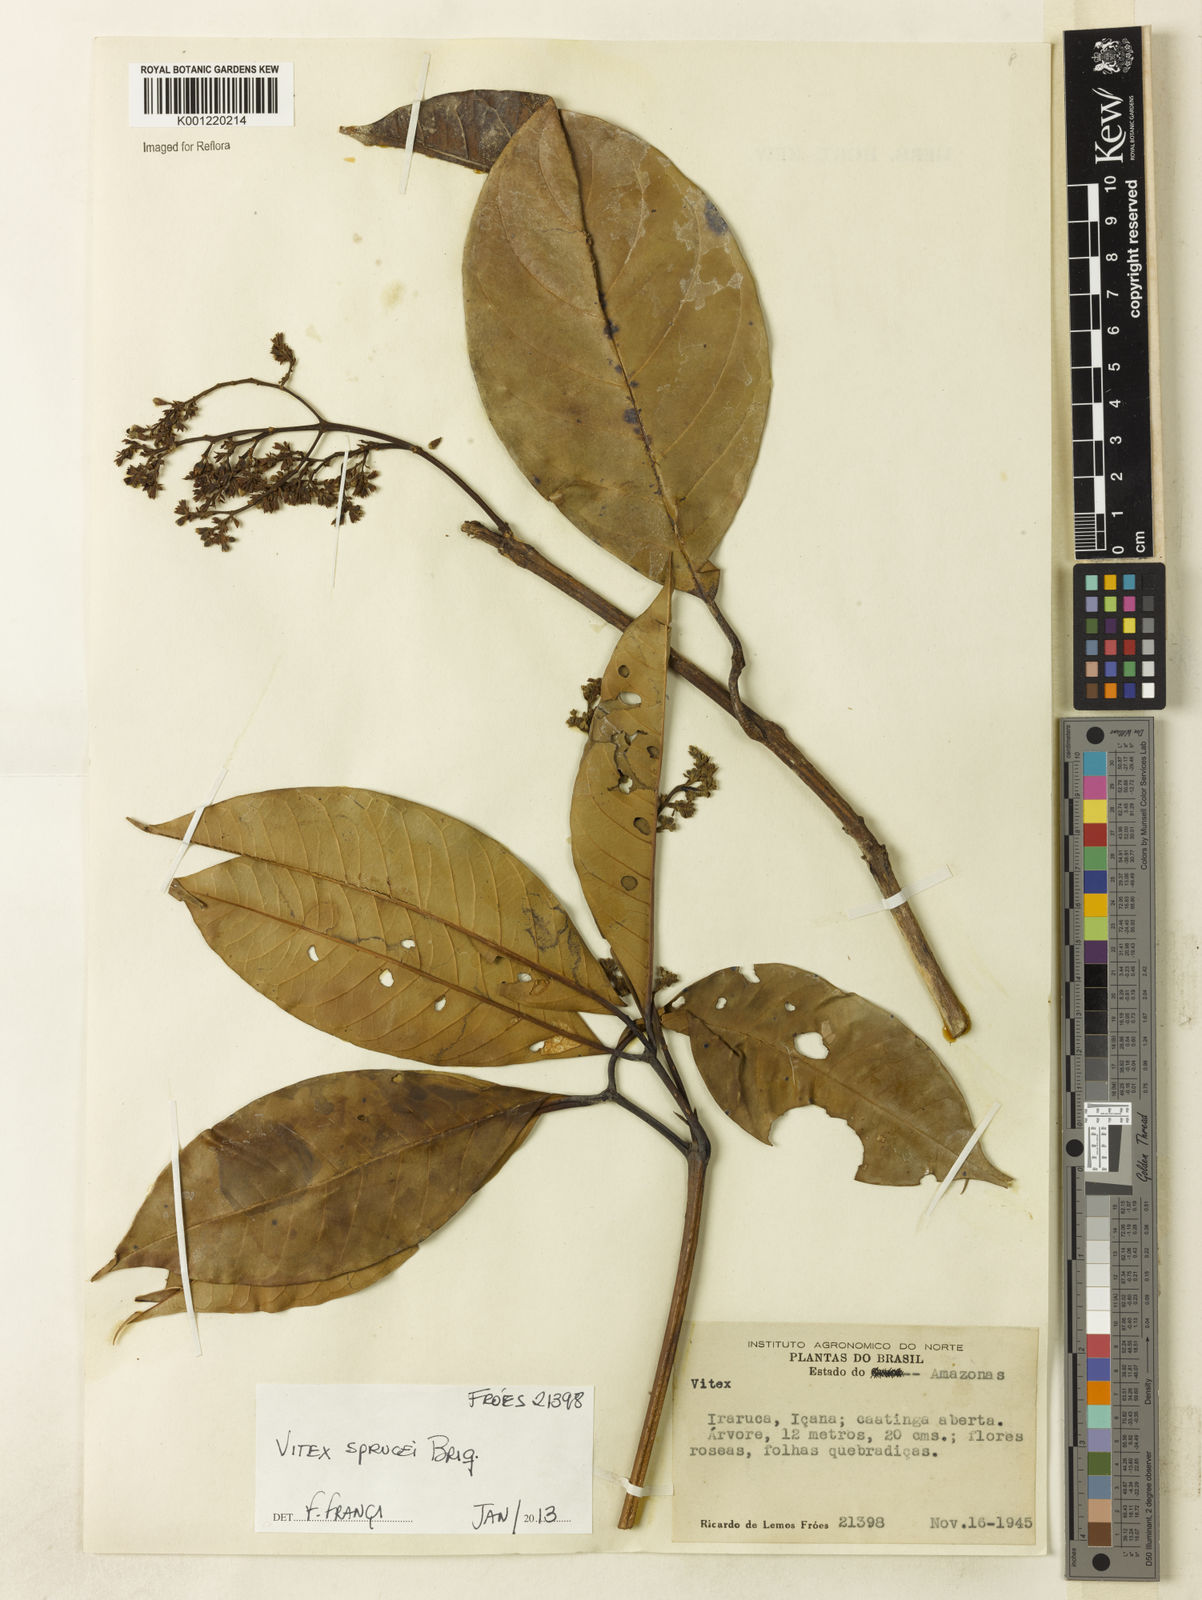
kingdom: Plantae
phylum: Tracheophyta
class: Magnoliopsida
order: Lamiales
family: Lamiaceae
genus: Vitex
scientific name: Vitex sprucei
